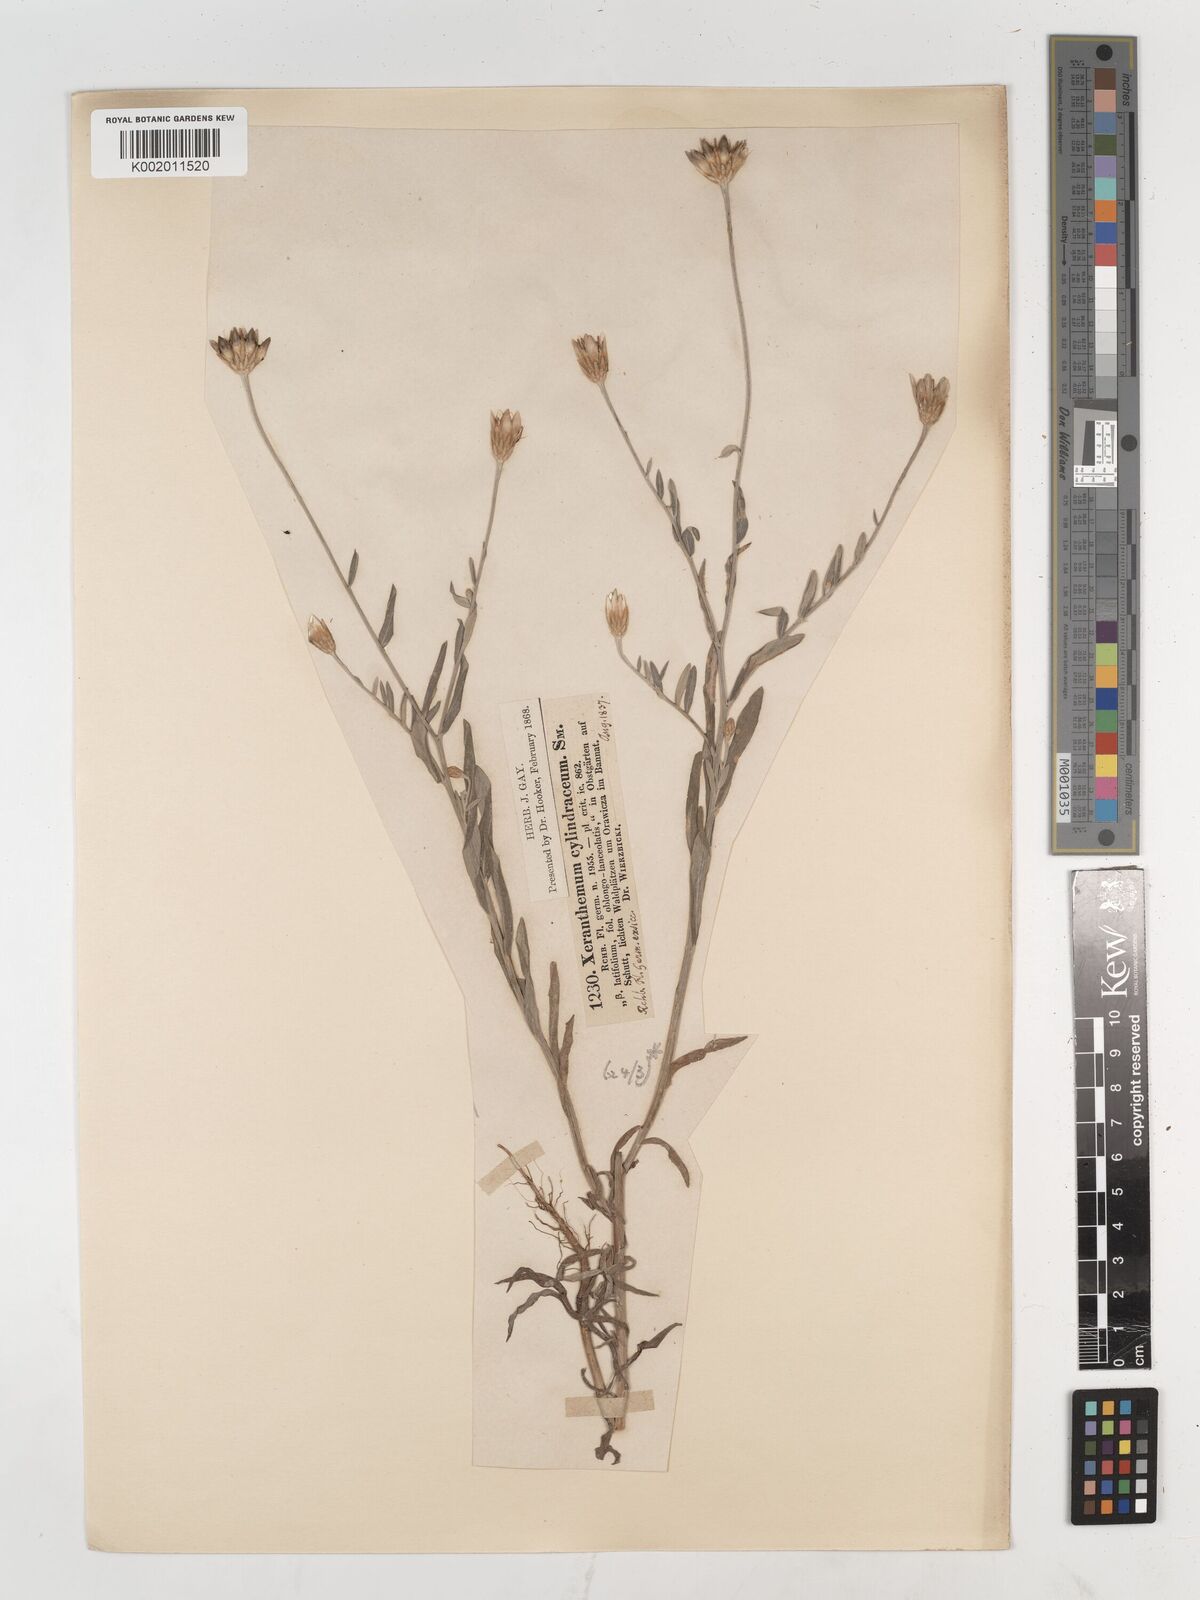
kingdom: Plantae
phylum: Tracheophyta
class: Magnoliopsida
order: Asterales
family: Asteraceae
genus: Xeranthemum
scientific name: Xeranthemum cylindraceum
